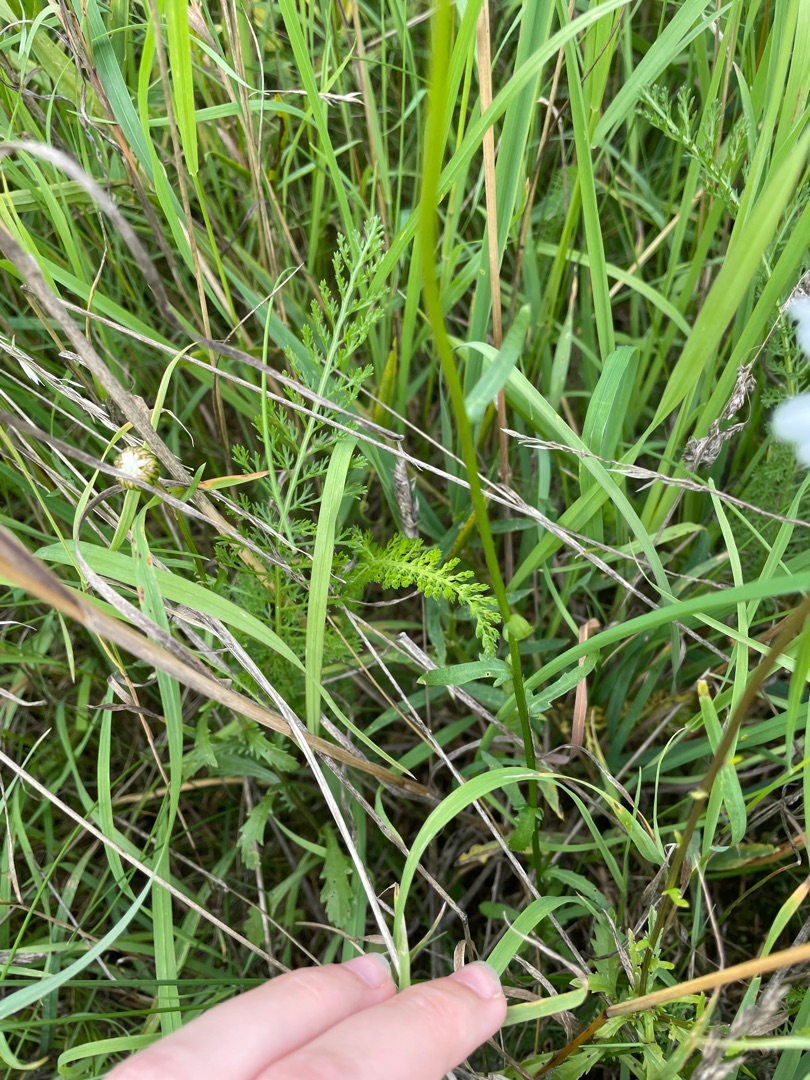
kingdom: Plantae
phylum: Tracheophyta
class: Magnoliopsida
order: Asterales
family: Asteraceae
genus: Leucanthemum
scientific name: Leucanthemum vulgare
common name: Hvid okseøje
